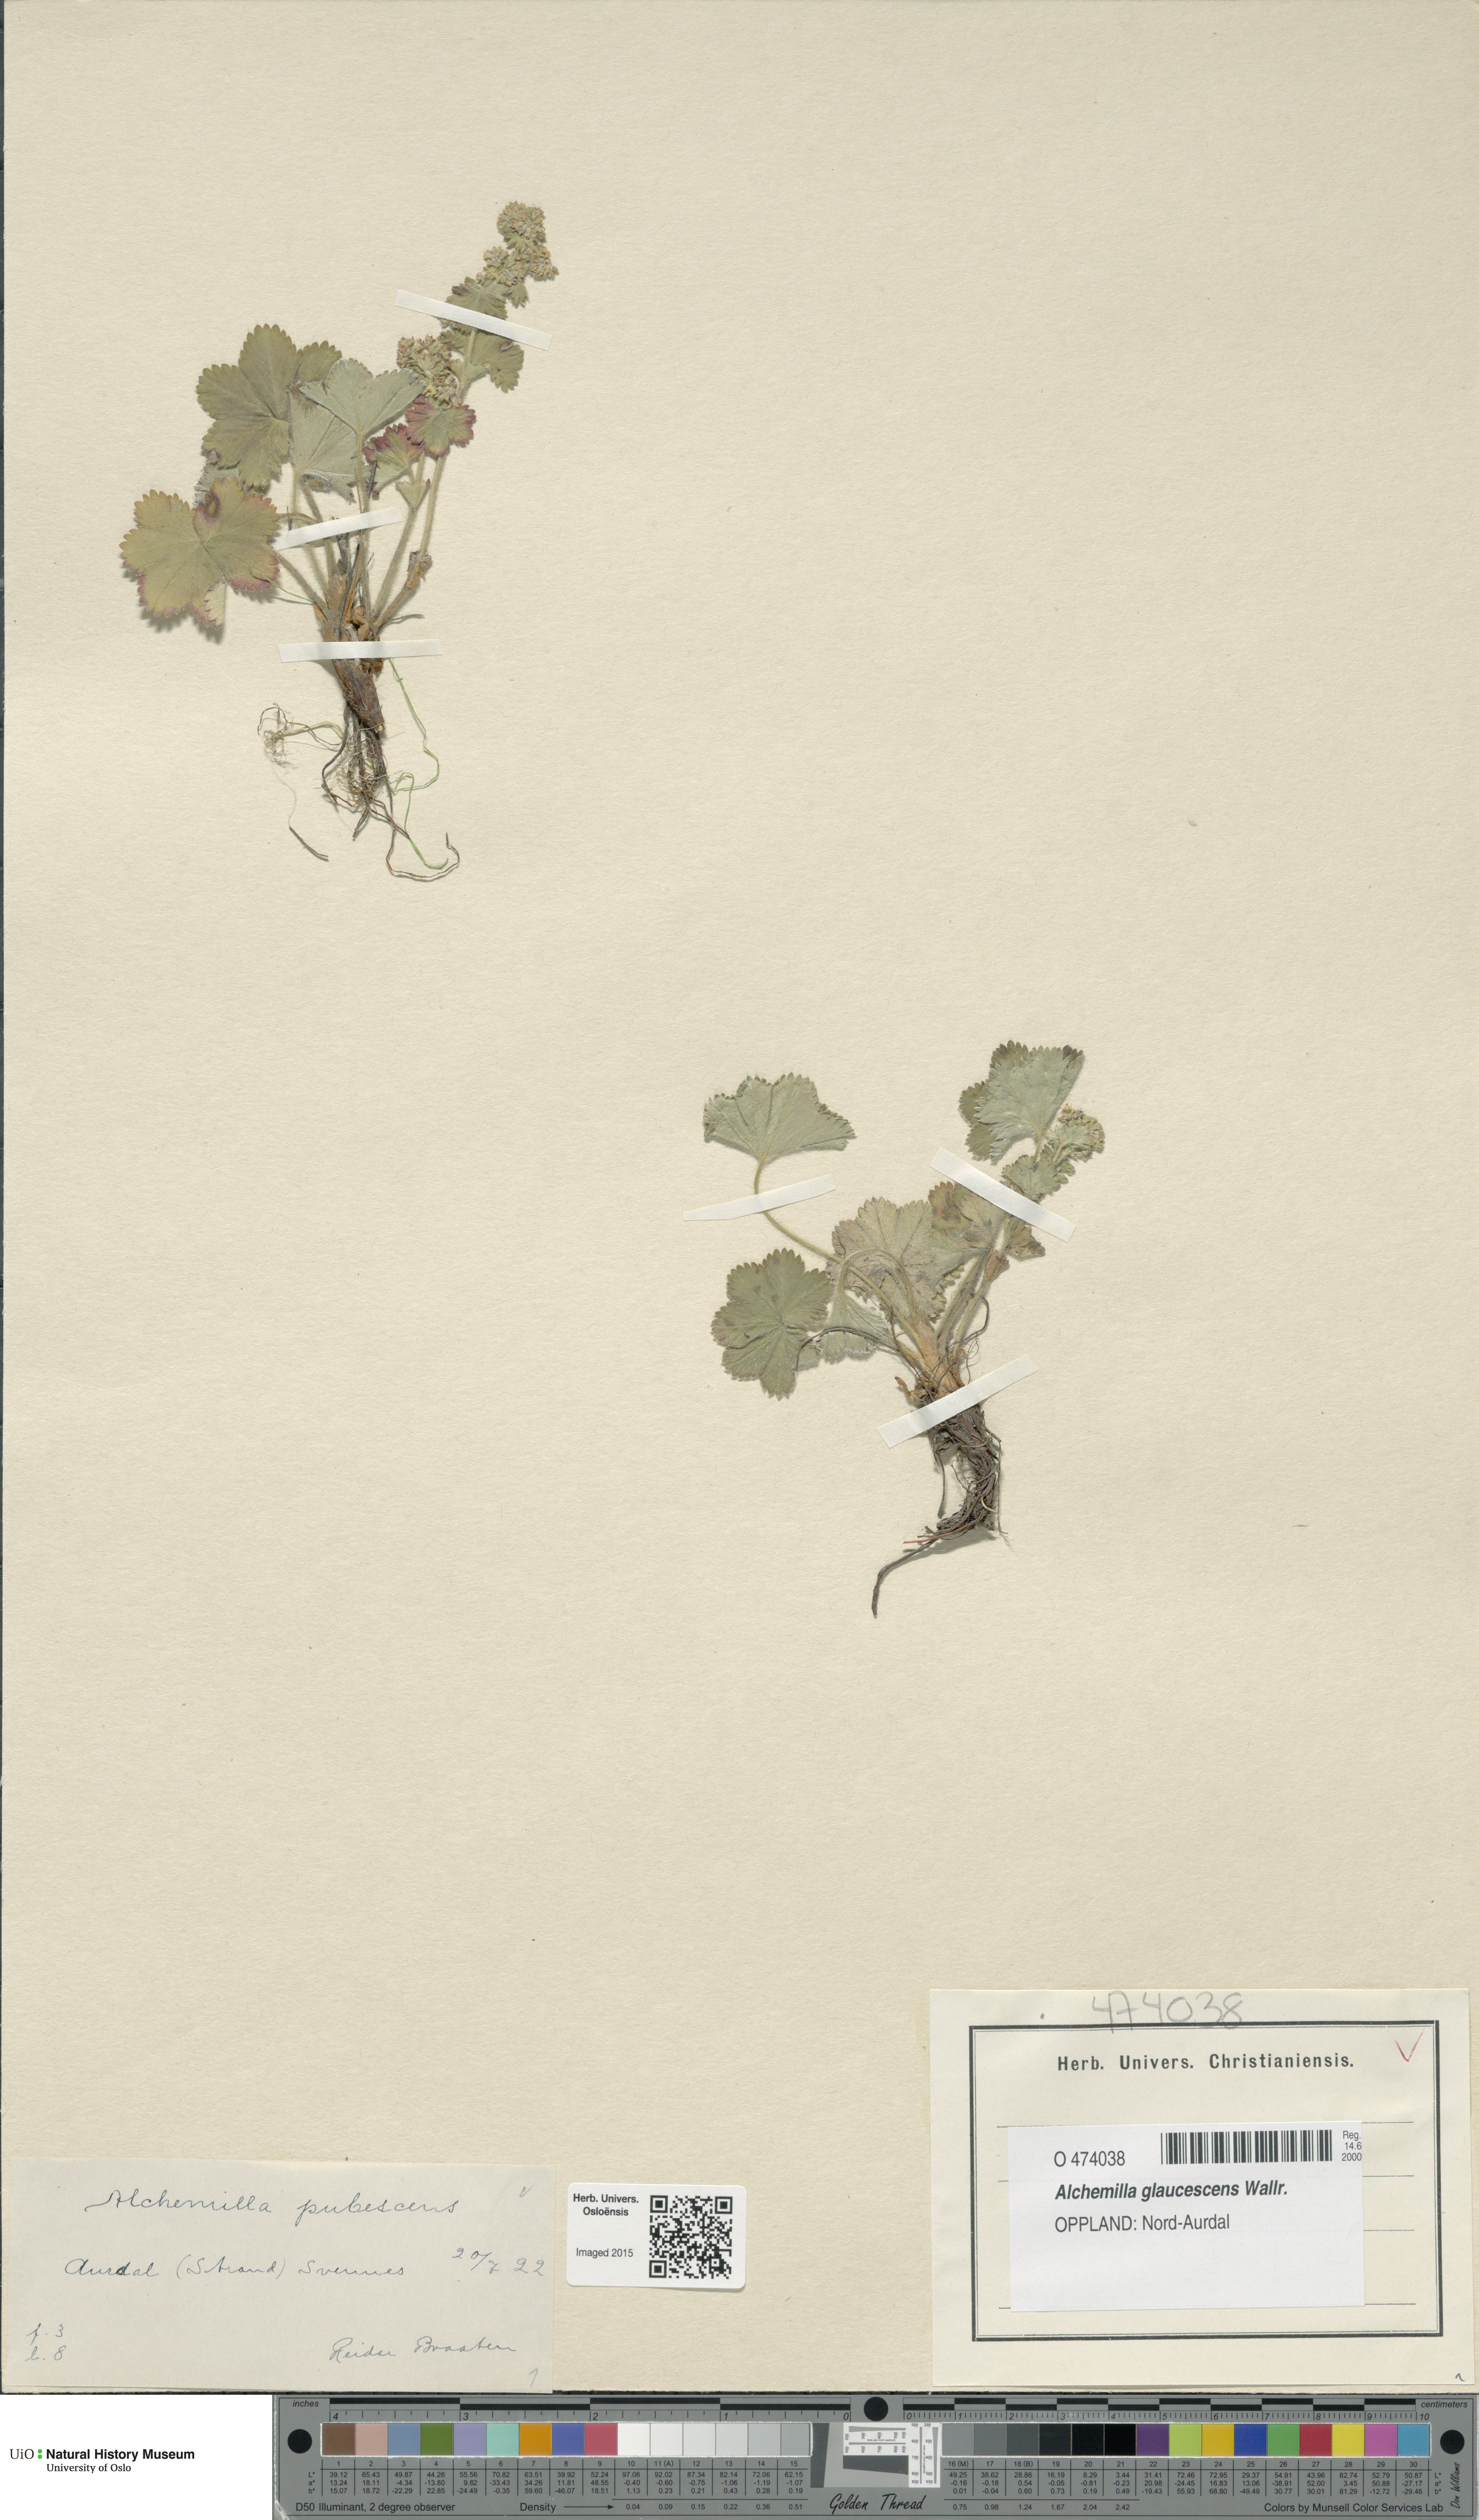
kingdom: Plantae
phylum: Tracheophyta
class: Magnoliopsida
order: Rosales
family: Rosaceae
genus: Alchemilla
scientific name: Alchemilla glaucescens
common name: Silky lady's mantle
